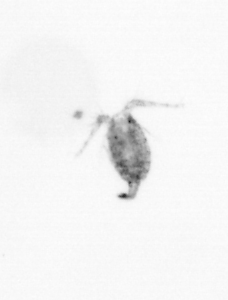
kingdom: Animalia
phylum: Arthropoda
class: Copepoda
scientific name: Copepoda
